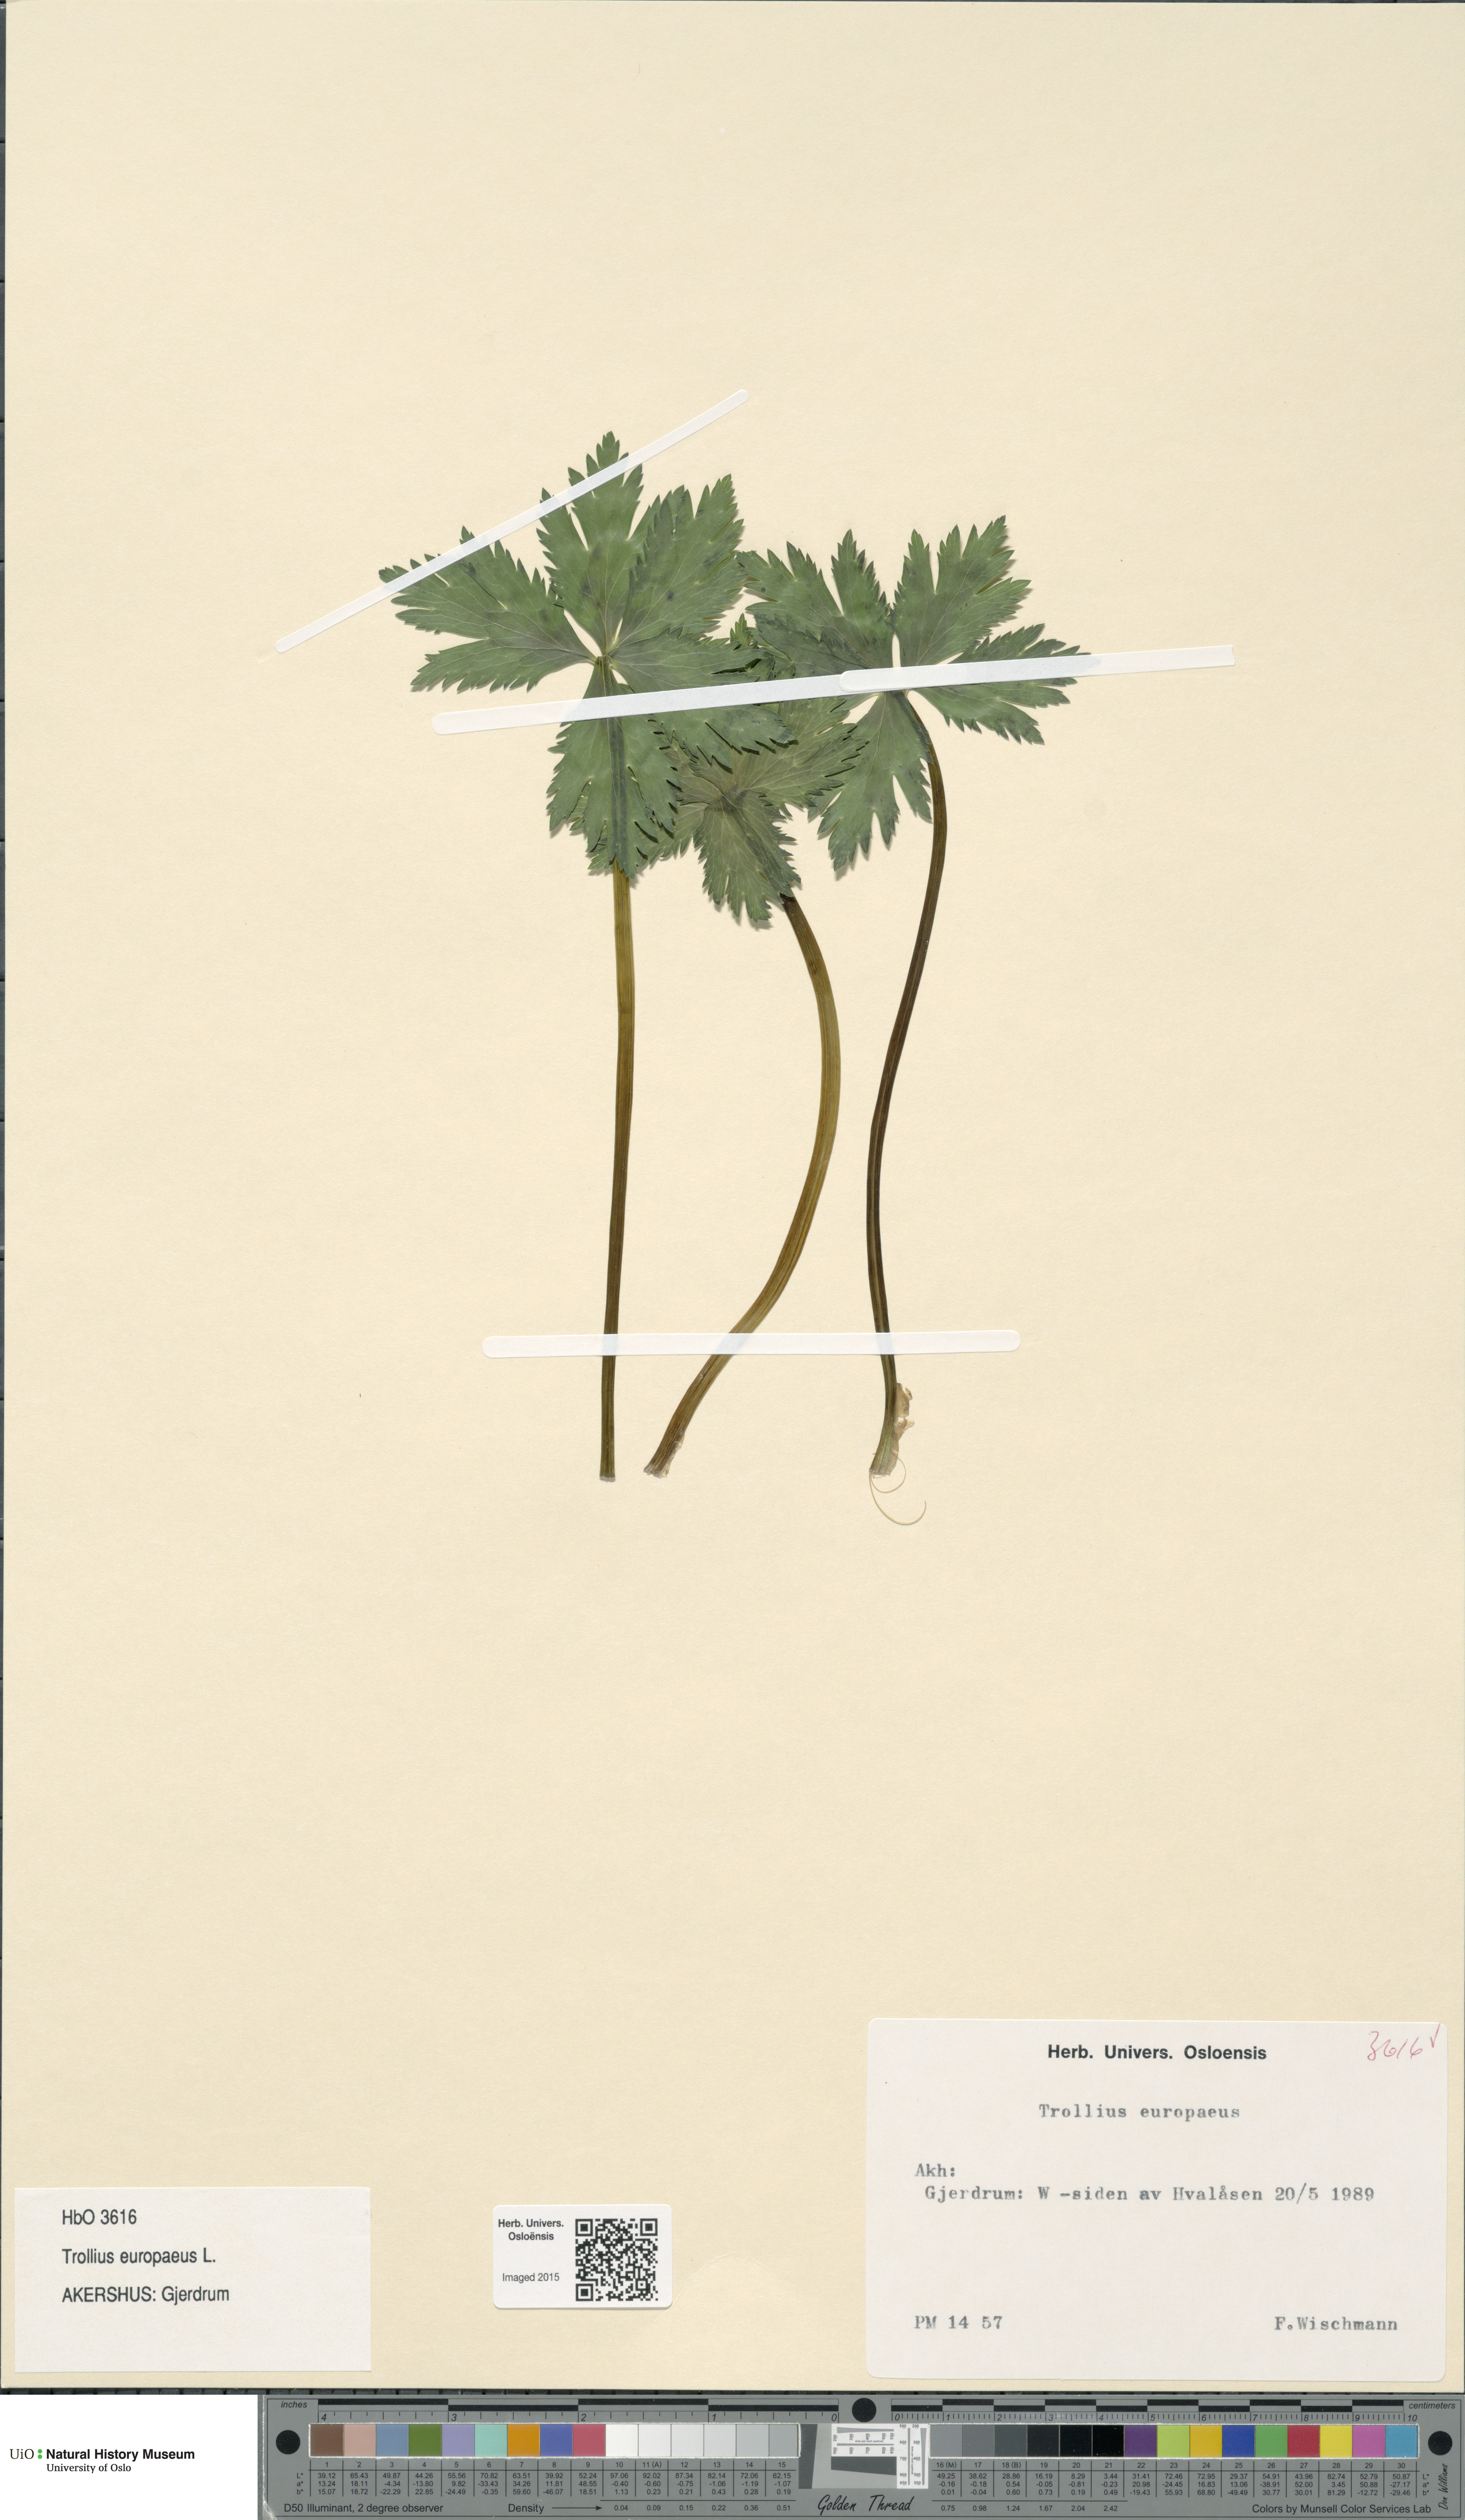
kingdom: Plantae
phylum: Tracheophyta
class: Magnoliopsida
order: Ranunculales
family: Ranunculaceae
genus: Trollius
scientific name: Trollius europaeus
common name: European globeflower
